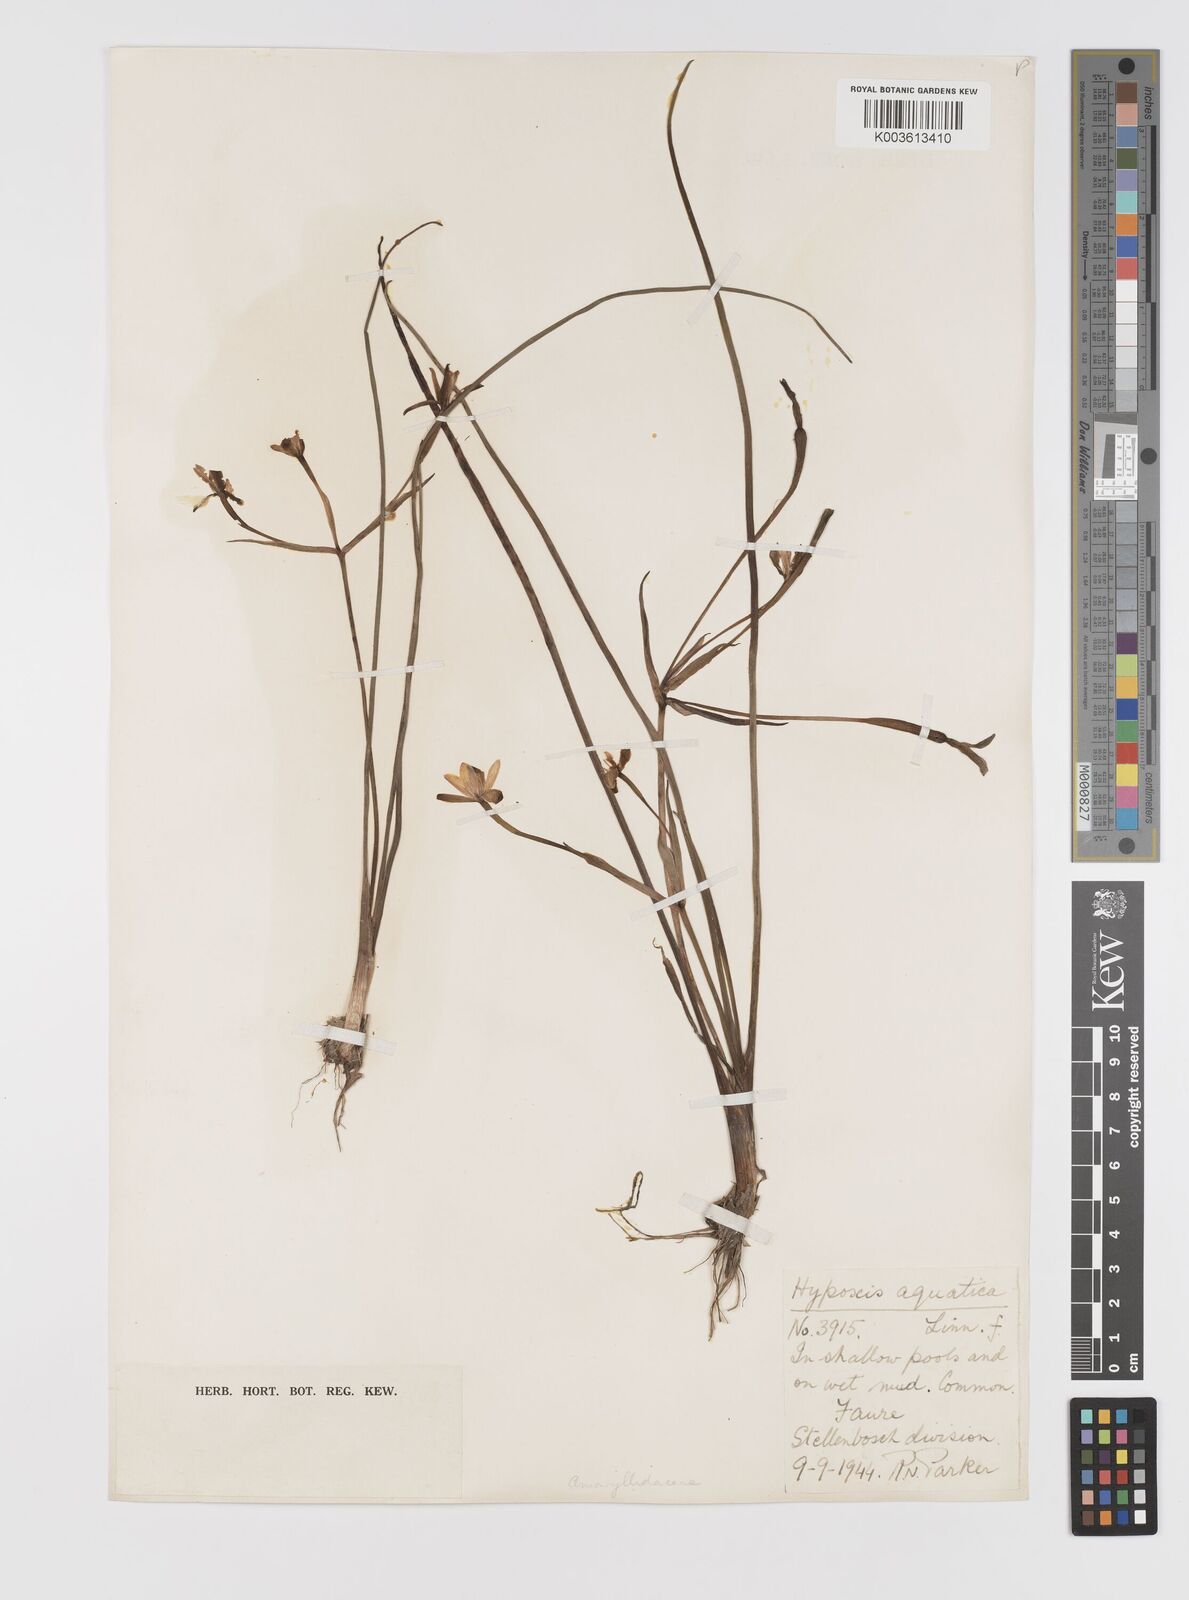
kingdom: Plantae
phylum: Tracheophyta
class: Liliopsida
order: Asparagales
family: Hypoxidaceae
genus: Pauridia
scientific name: Pauridia aquatica
